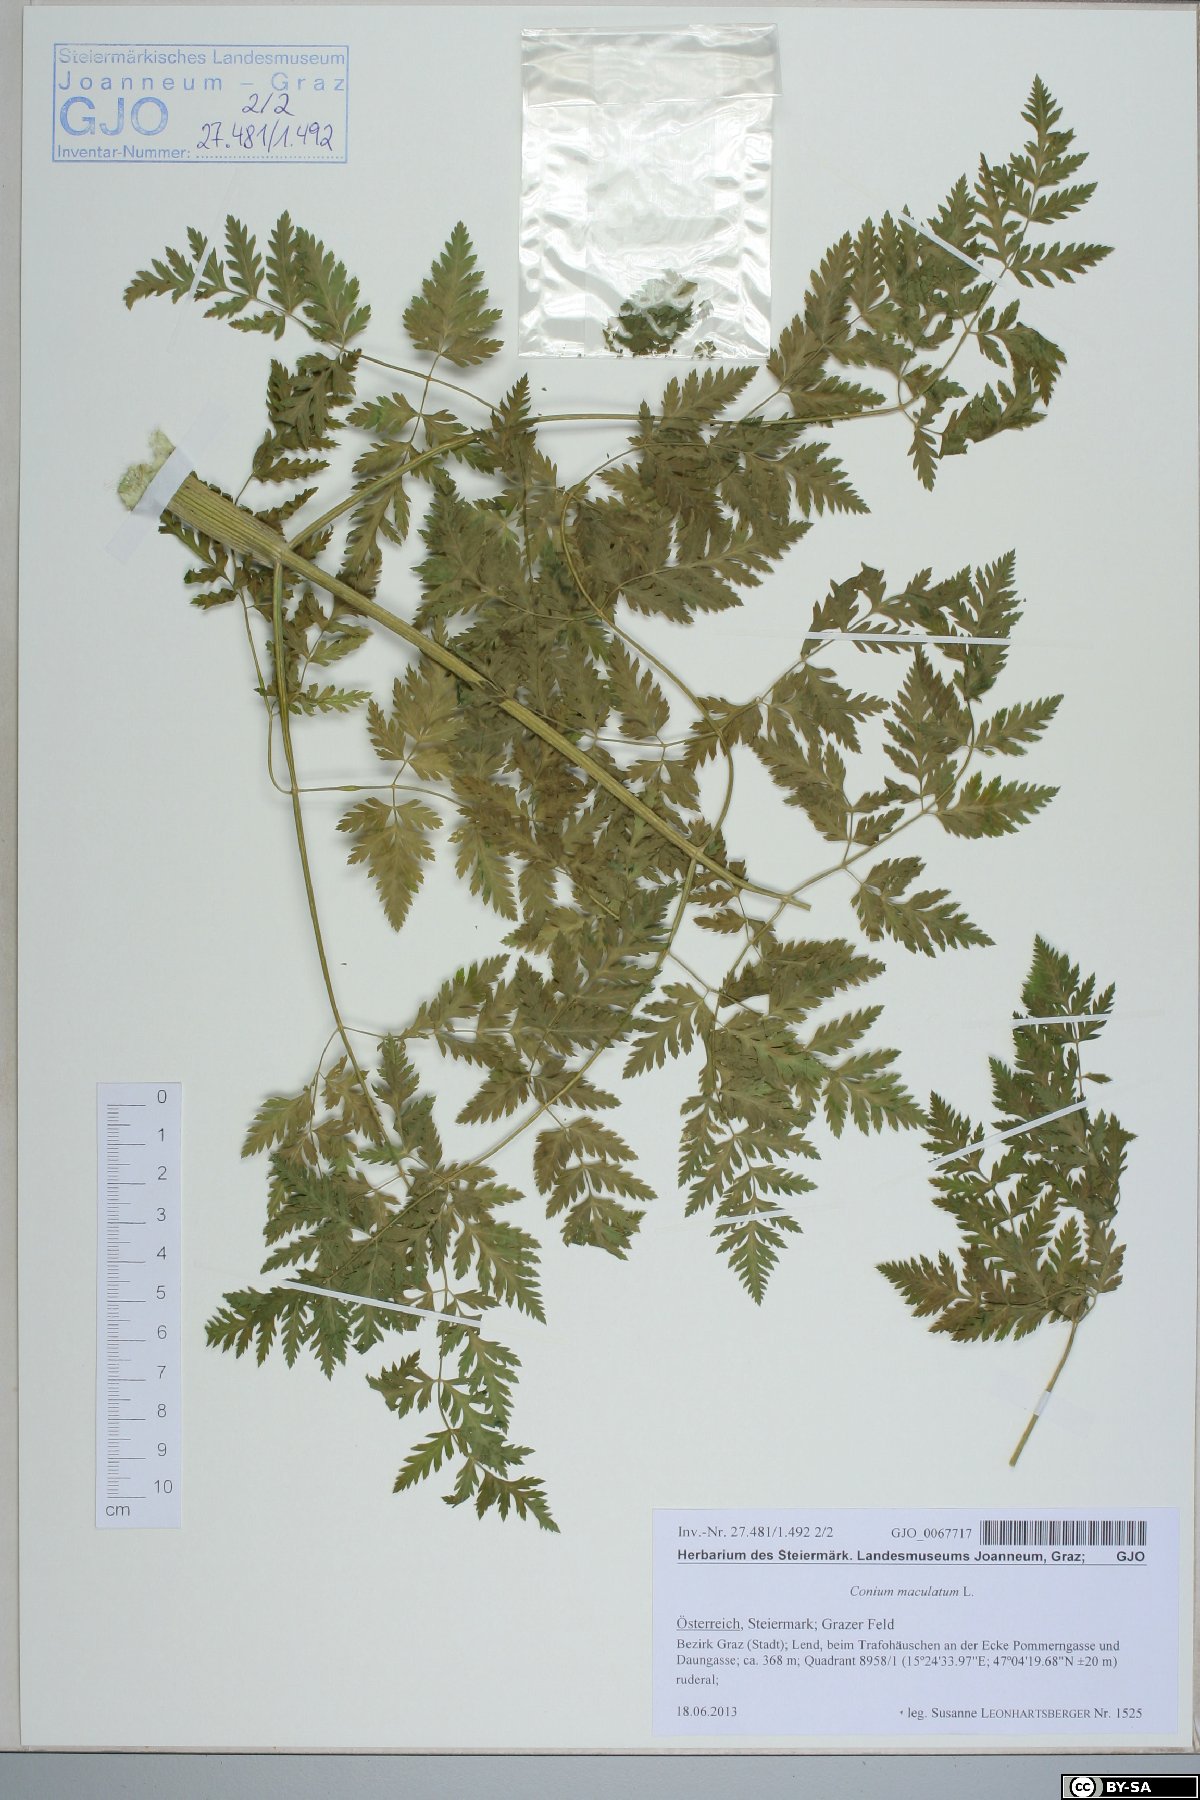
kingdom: Plantae
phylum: Tracheophyta
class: Magnoliopsida
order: Apiales
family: Apiaceae
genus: Conium
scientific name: Conium maculatum
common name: Hemlock
